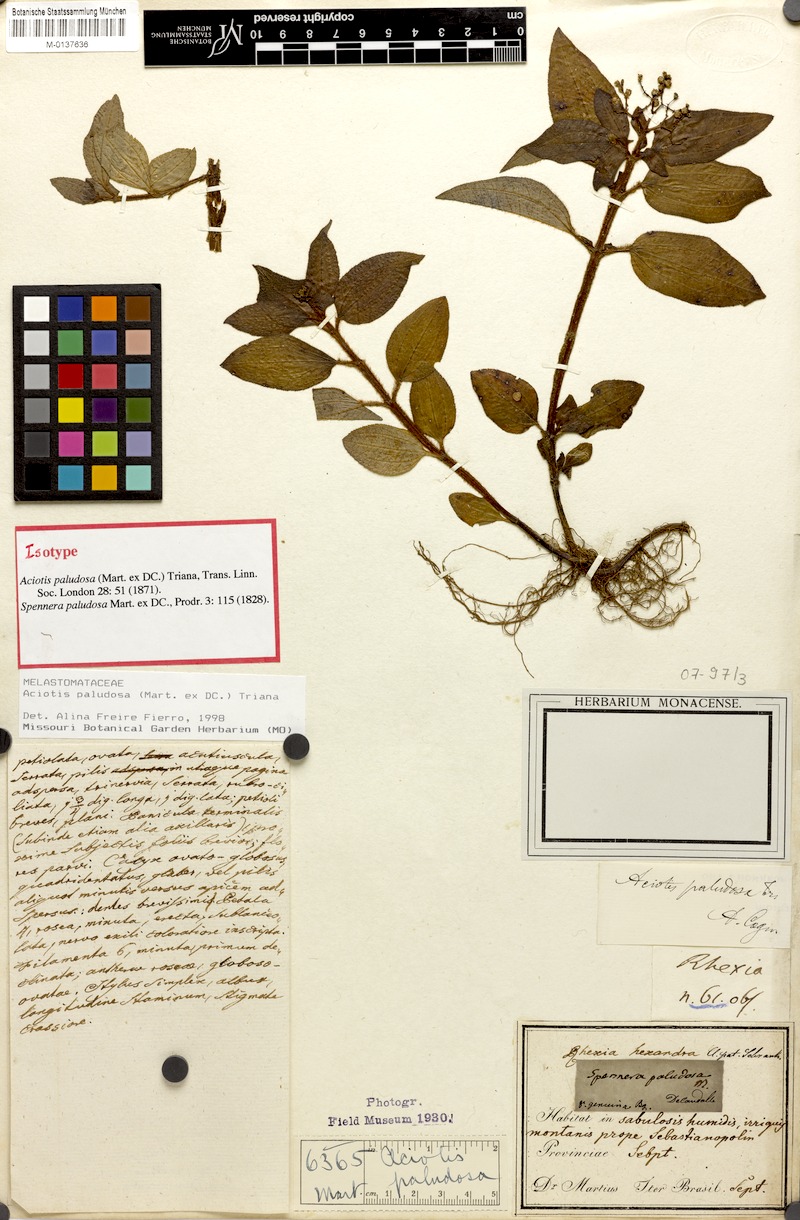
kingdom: Plantae
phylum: Tracheophyta
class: Magnoliopsida
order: Myrtales
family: Melastomataceae
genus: Aciotis
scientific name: Aciotis paludosa
